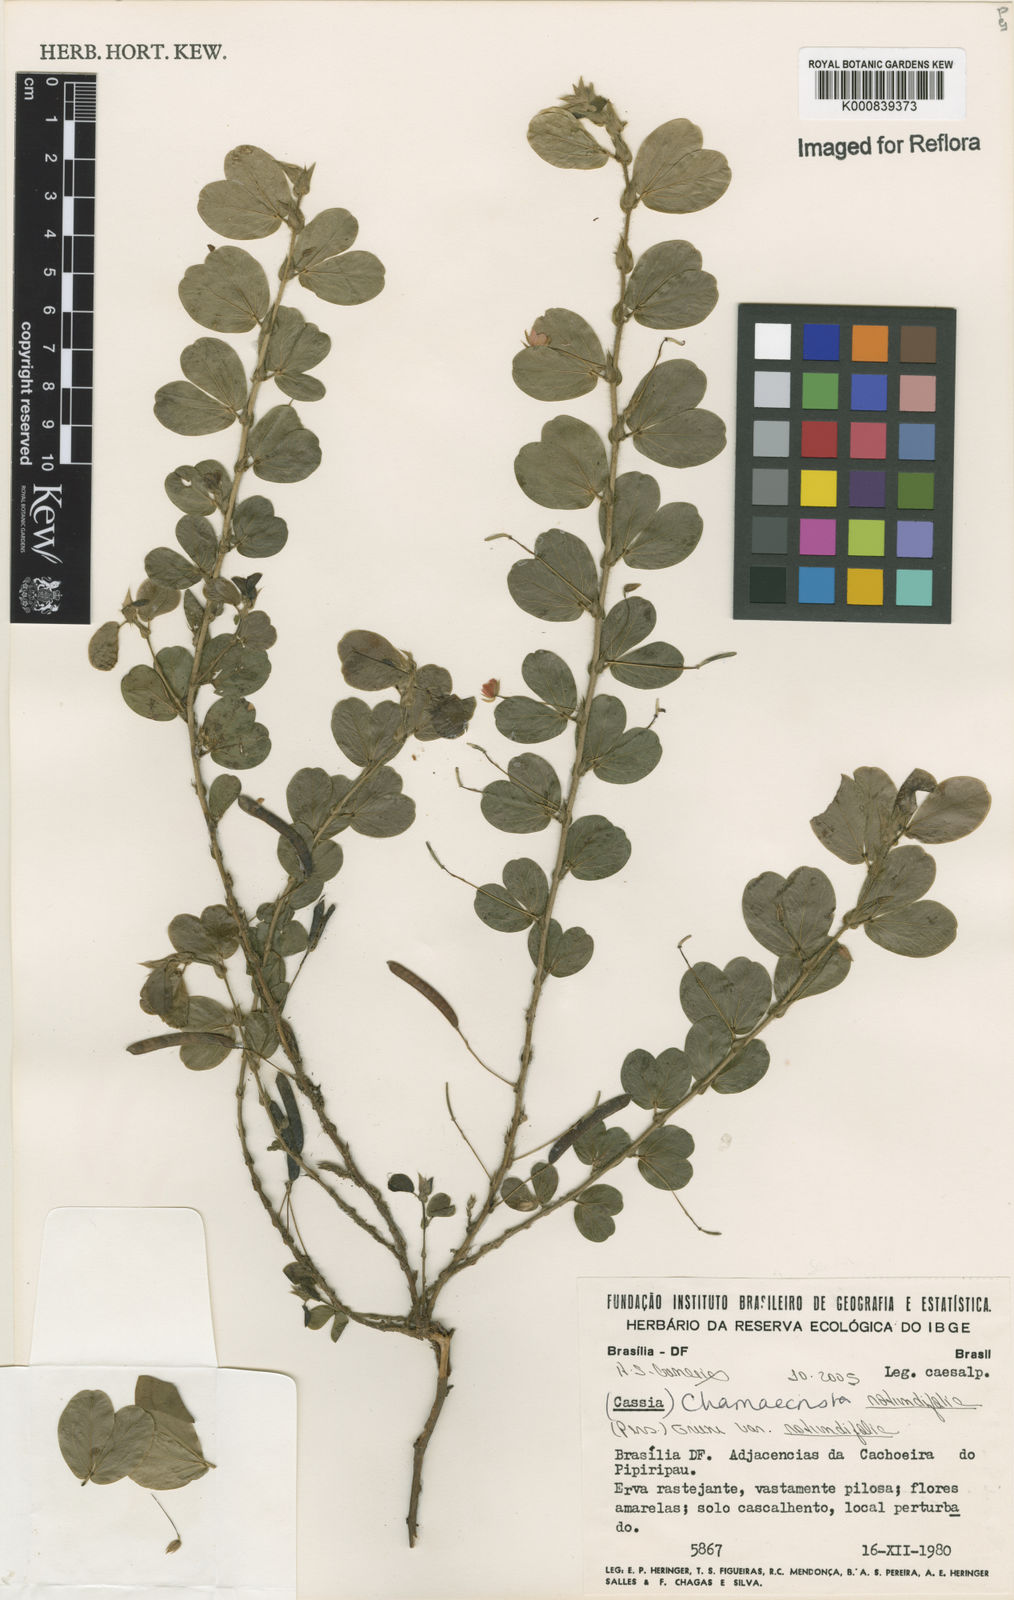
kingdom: Plantae
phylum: Tracheophyta
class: Magnoliopsida
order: Fabales
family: Fabaceae
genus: Chamaecrista
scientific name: Chamaecrista rotundifolia
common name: Round-leaf cassia
